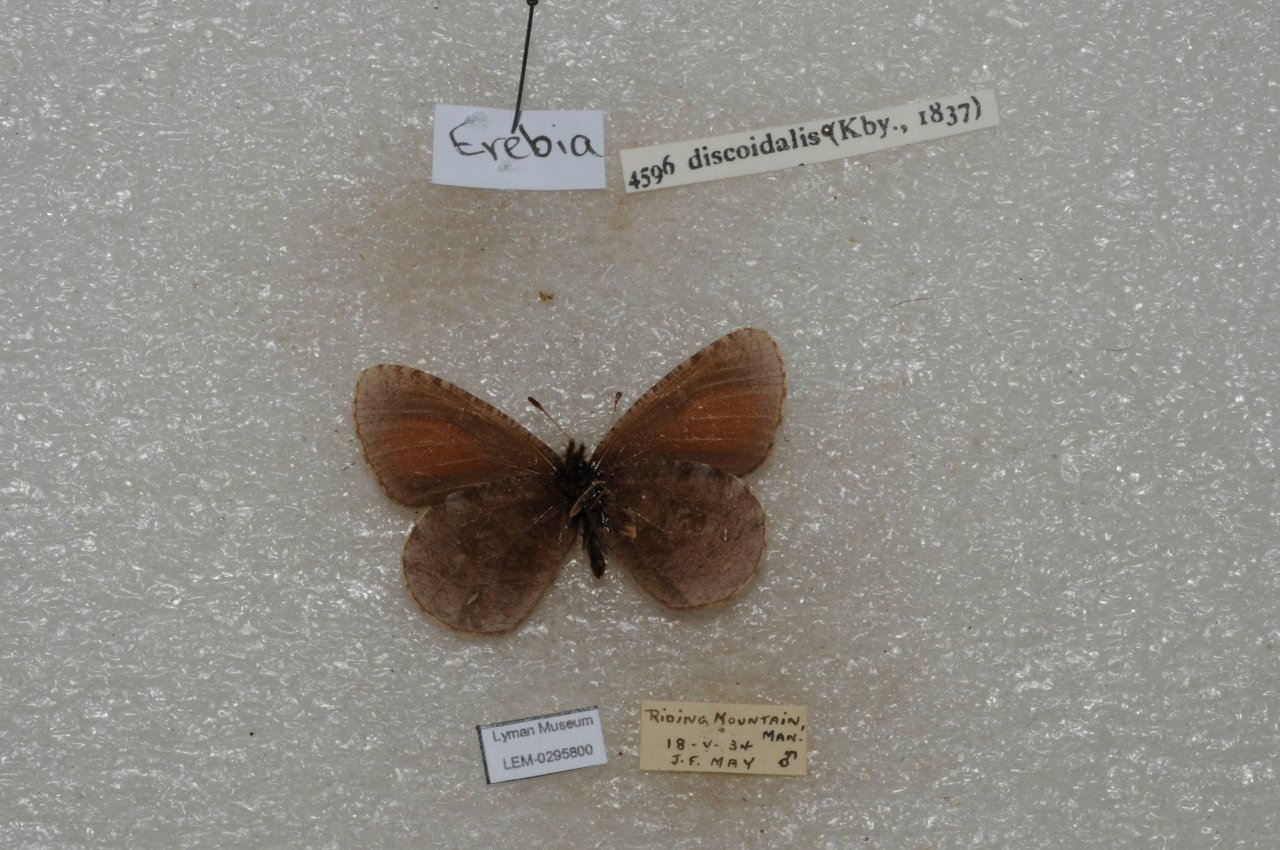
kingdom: Animalia
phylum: Arthropoda
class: Insecta
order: Lepidoptera
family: Nymphalidae
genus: Erebia
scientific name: Erebia discoidalis
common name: Red-disked Alpine
